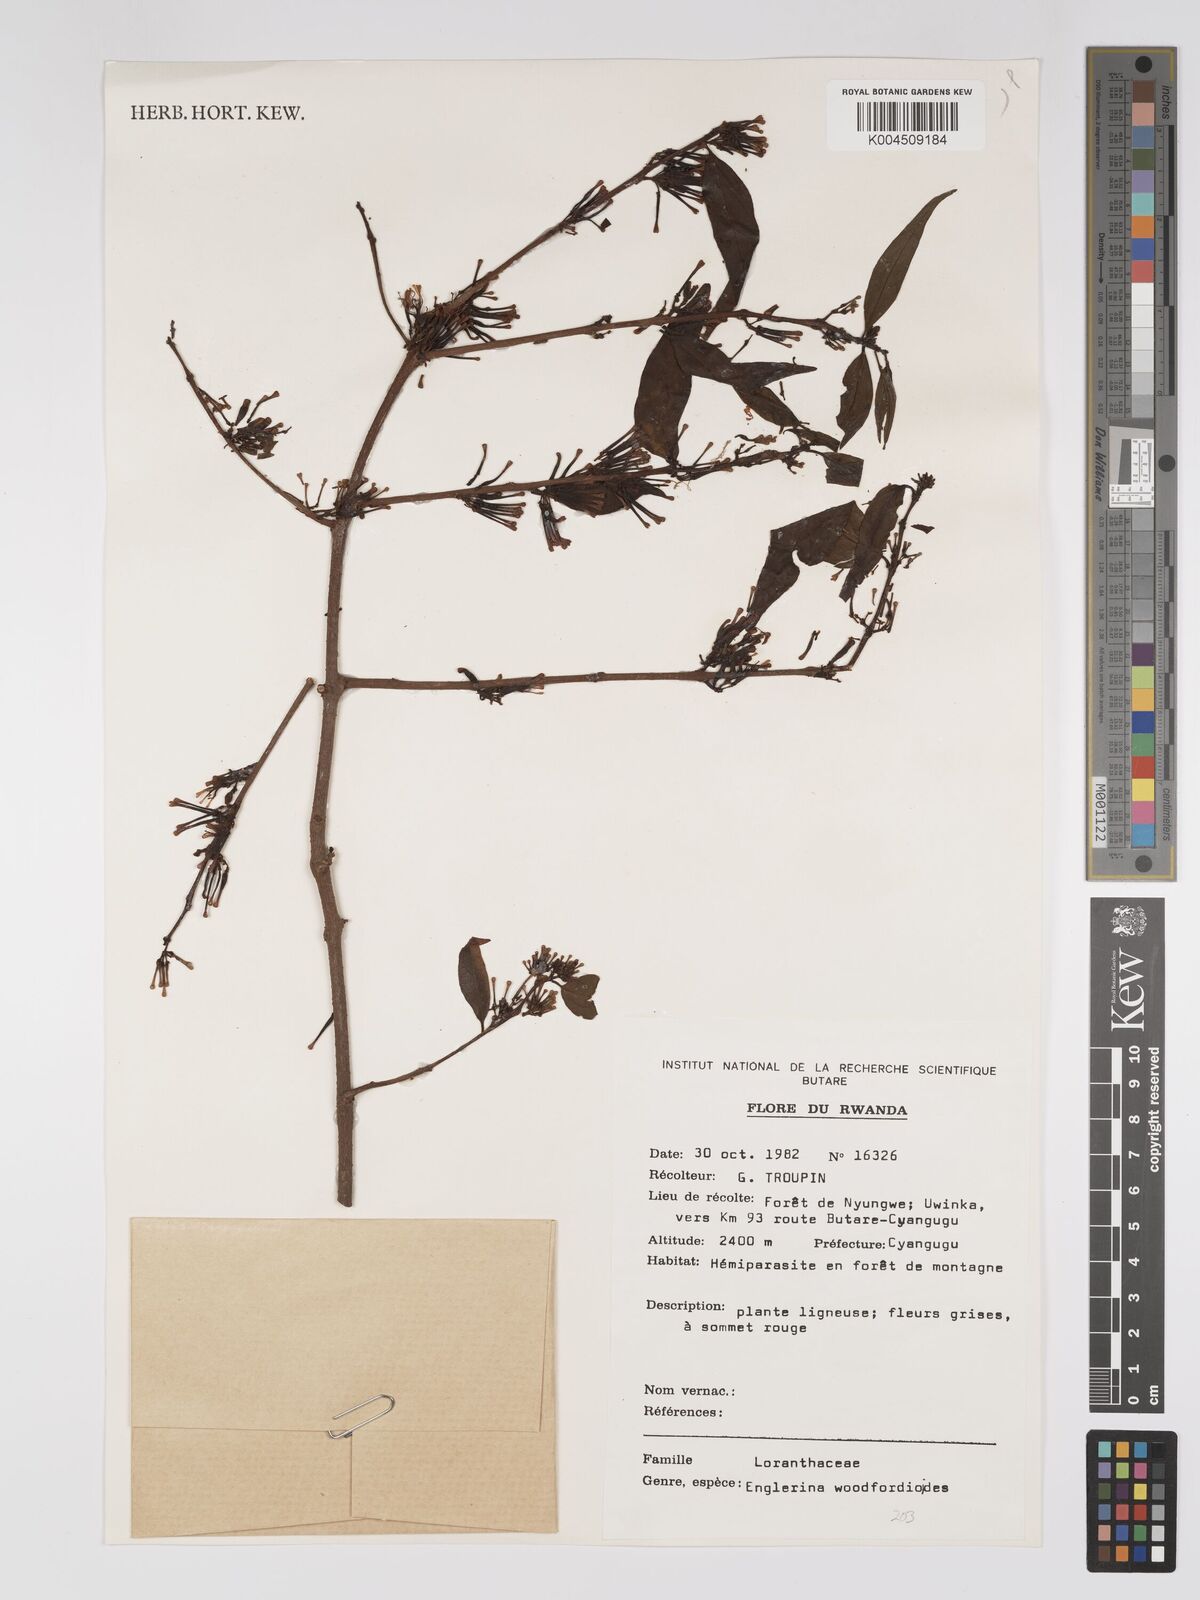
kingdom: Plantae
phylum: Tracheophyta
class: Magnoliopsida
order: Santalales
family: Loranthaceae
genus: Englerina
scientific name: Englerina woodfordioides
